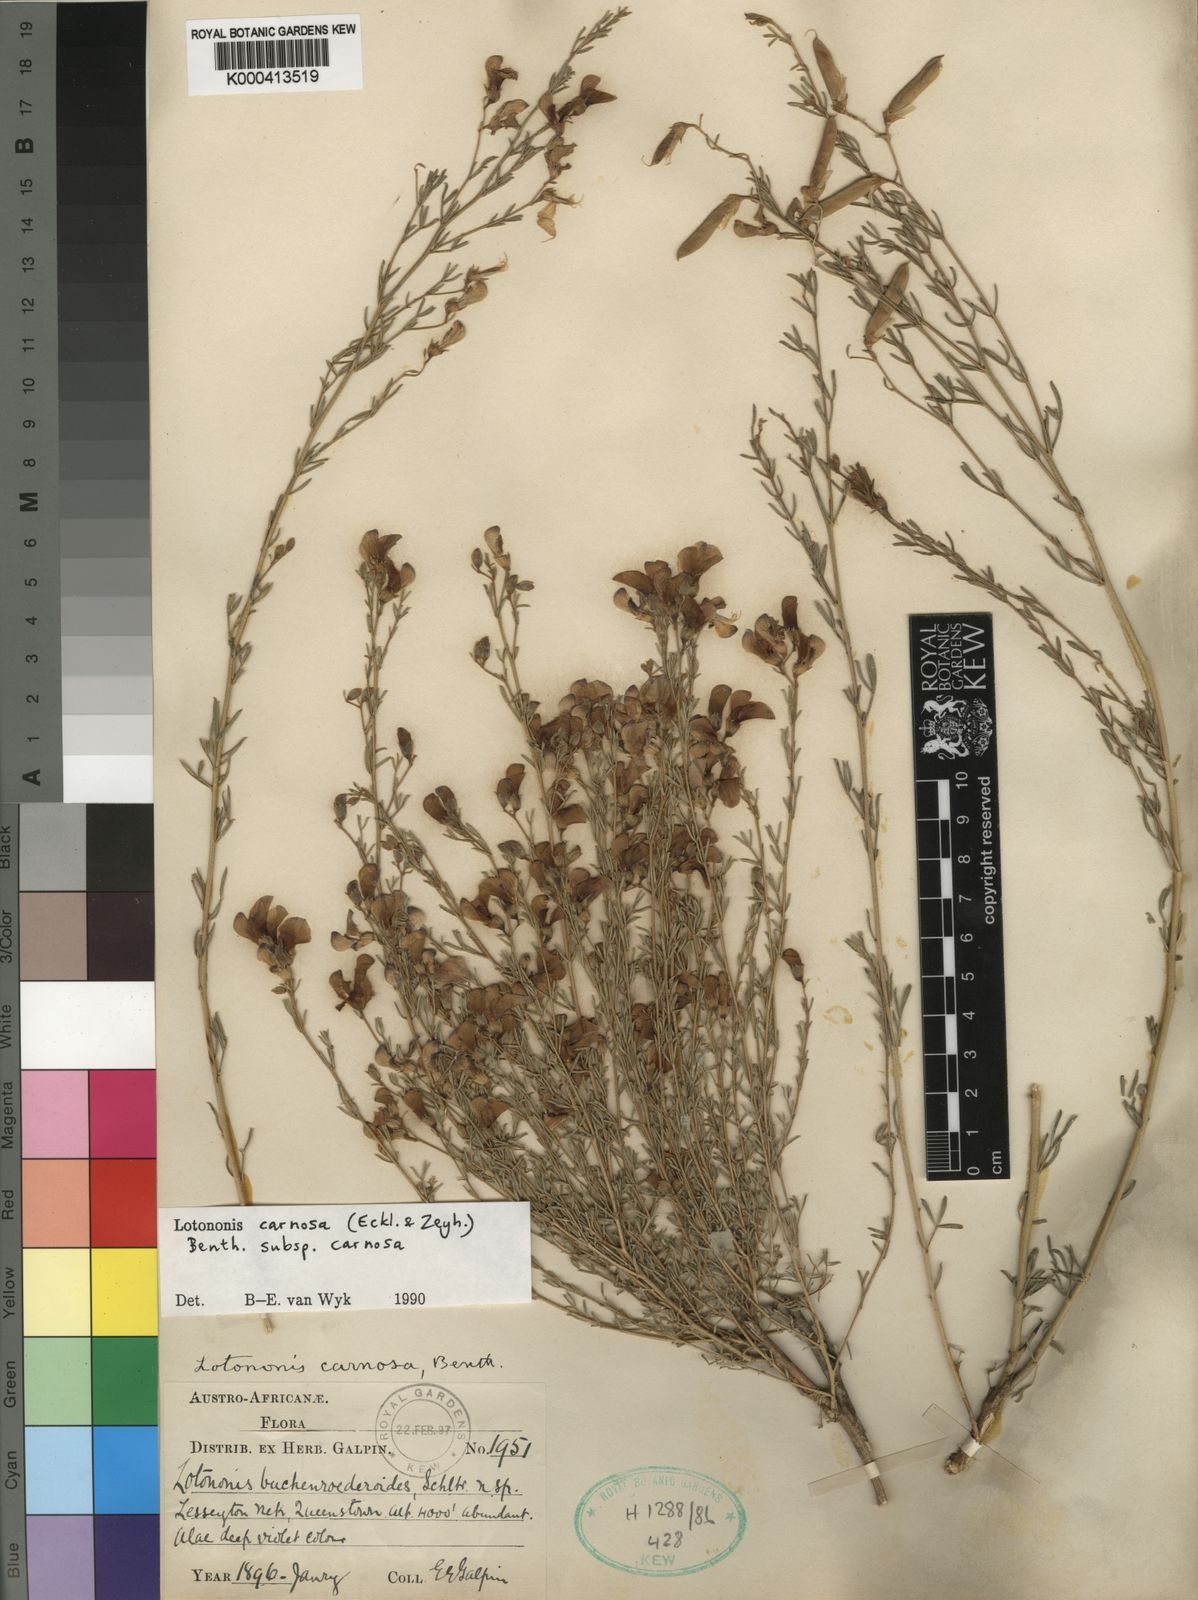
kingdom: Plantae
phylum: Tracheophyta
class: Magnoliopsida
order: Fabales
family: Fabaceae
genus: Lotononis
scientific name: Lotononis carnosa
